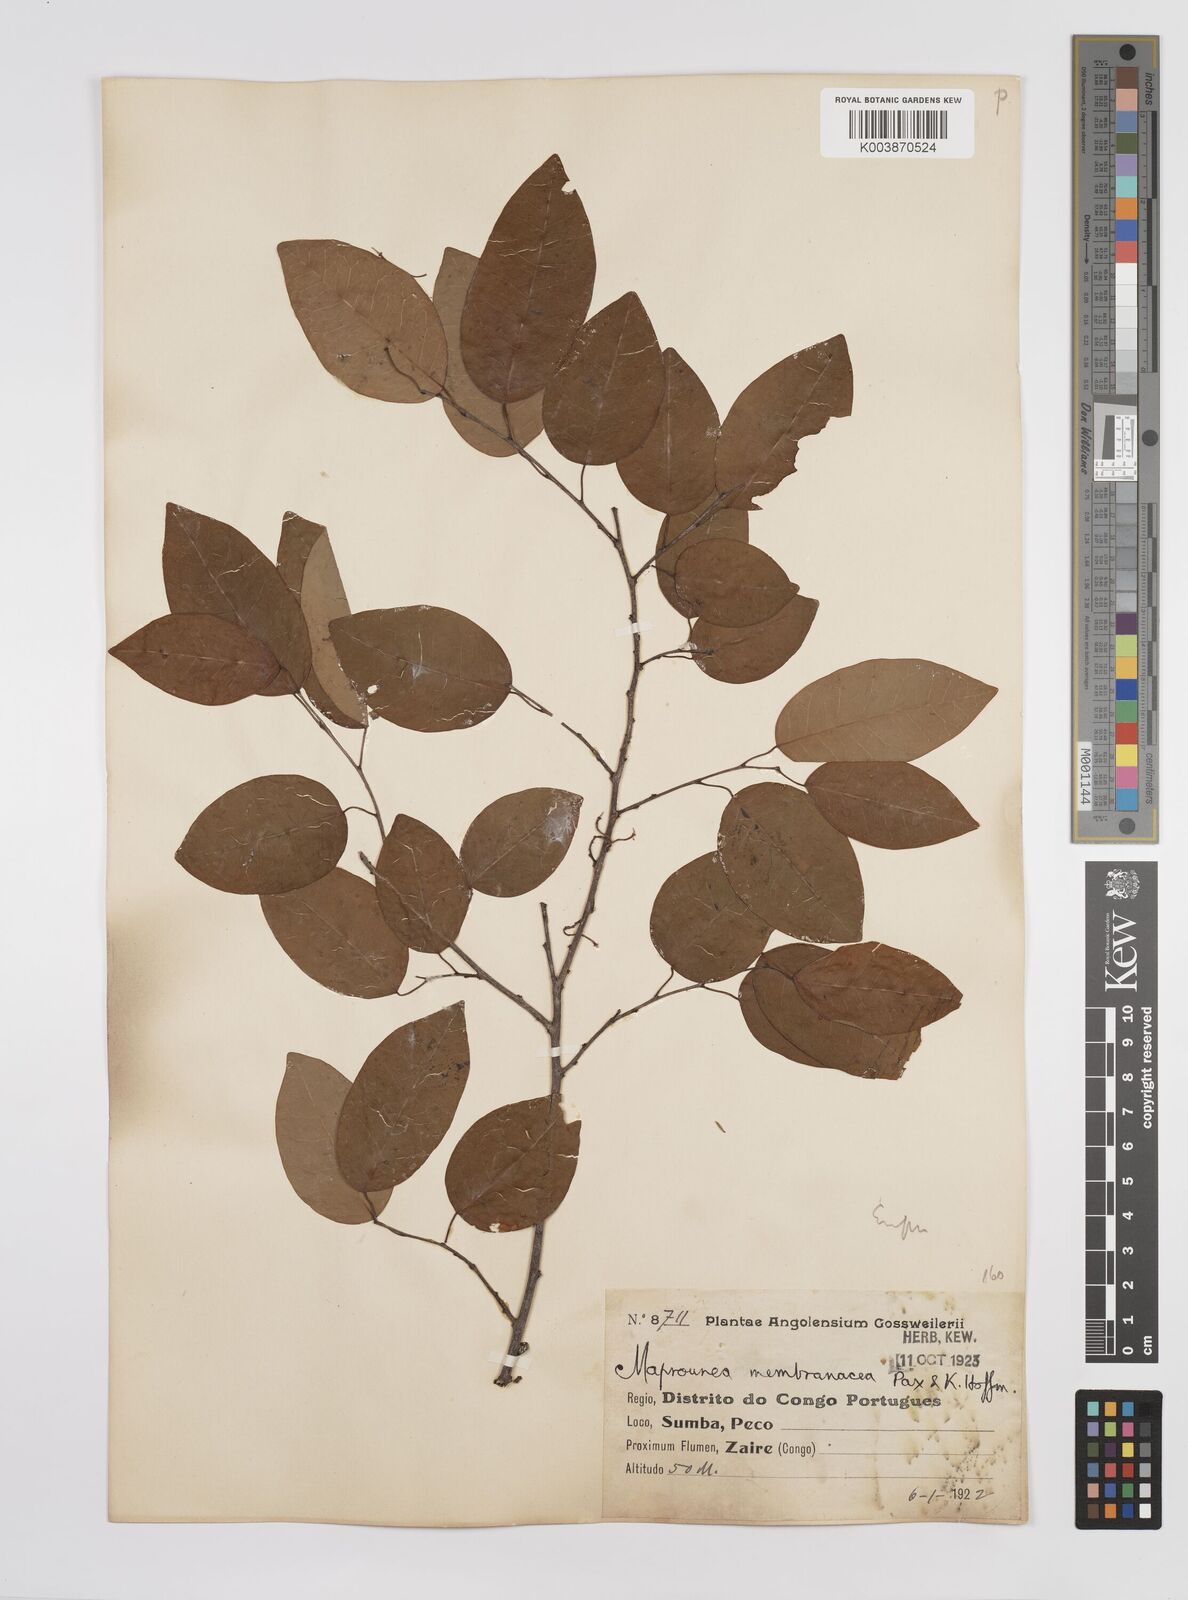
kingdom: Plantae
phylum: Tracheophyta
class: Magnoliopsida
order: Malpighiales
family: Euphorbiaceae
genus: Maprounea
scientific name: Maprounea membranacea
